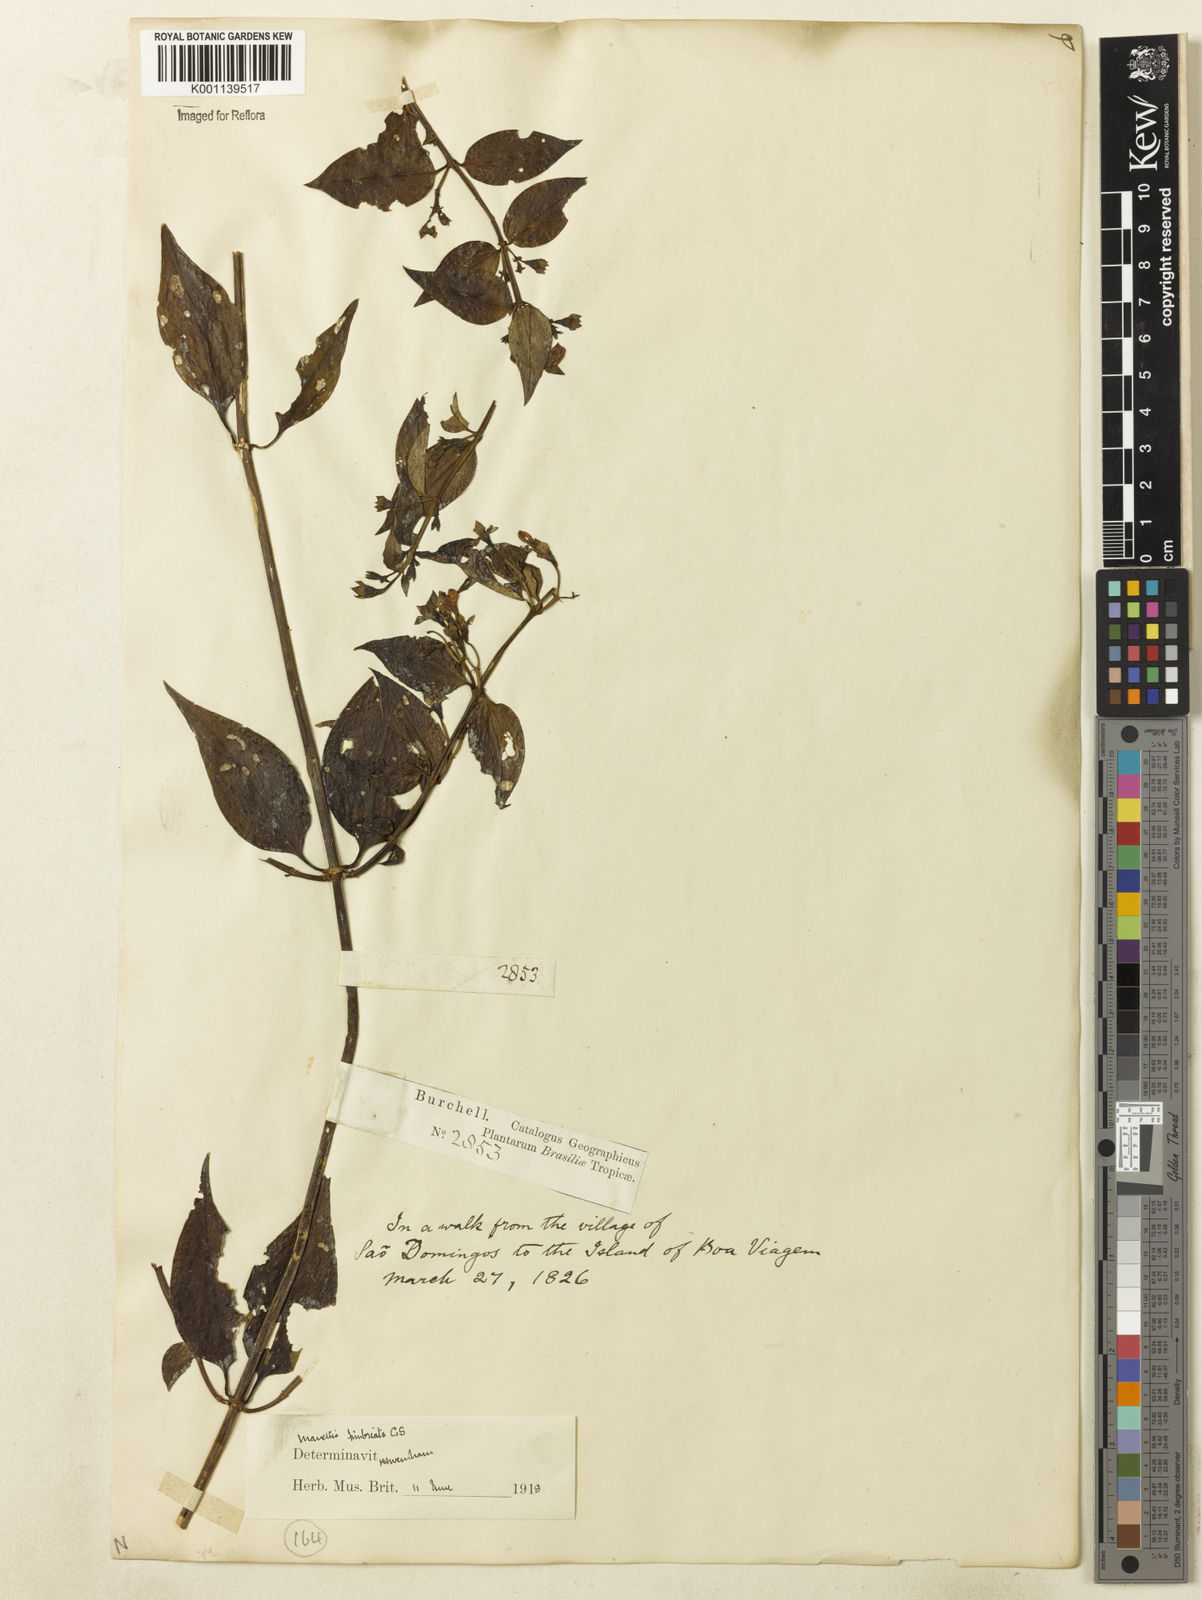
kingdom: Plantae
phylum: Tracheophyta
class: Magnoliopsida
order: Gentianales
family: Rubiaceae
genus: Manettia
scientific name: Manettia fimbriata
